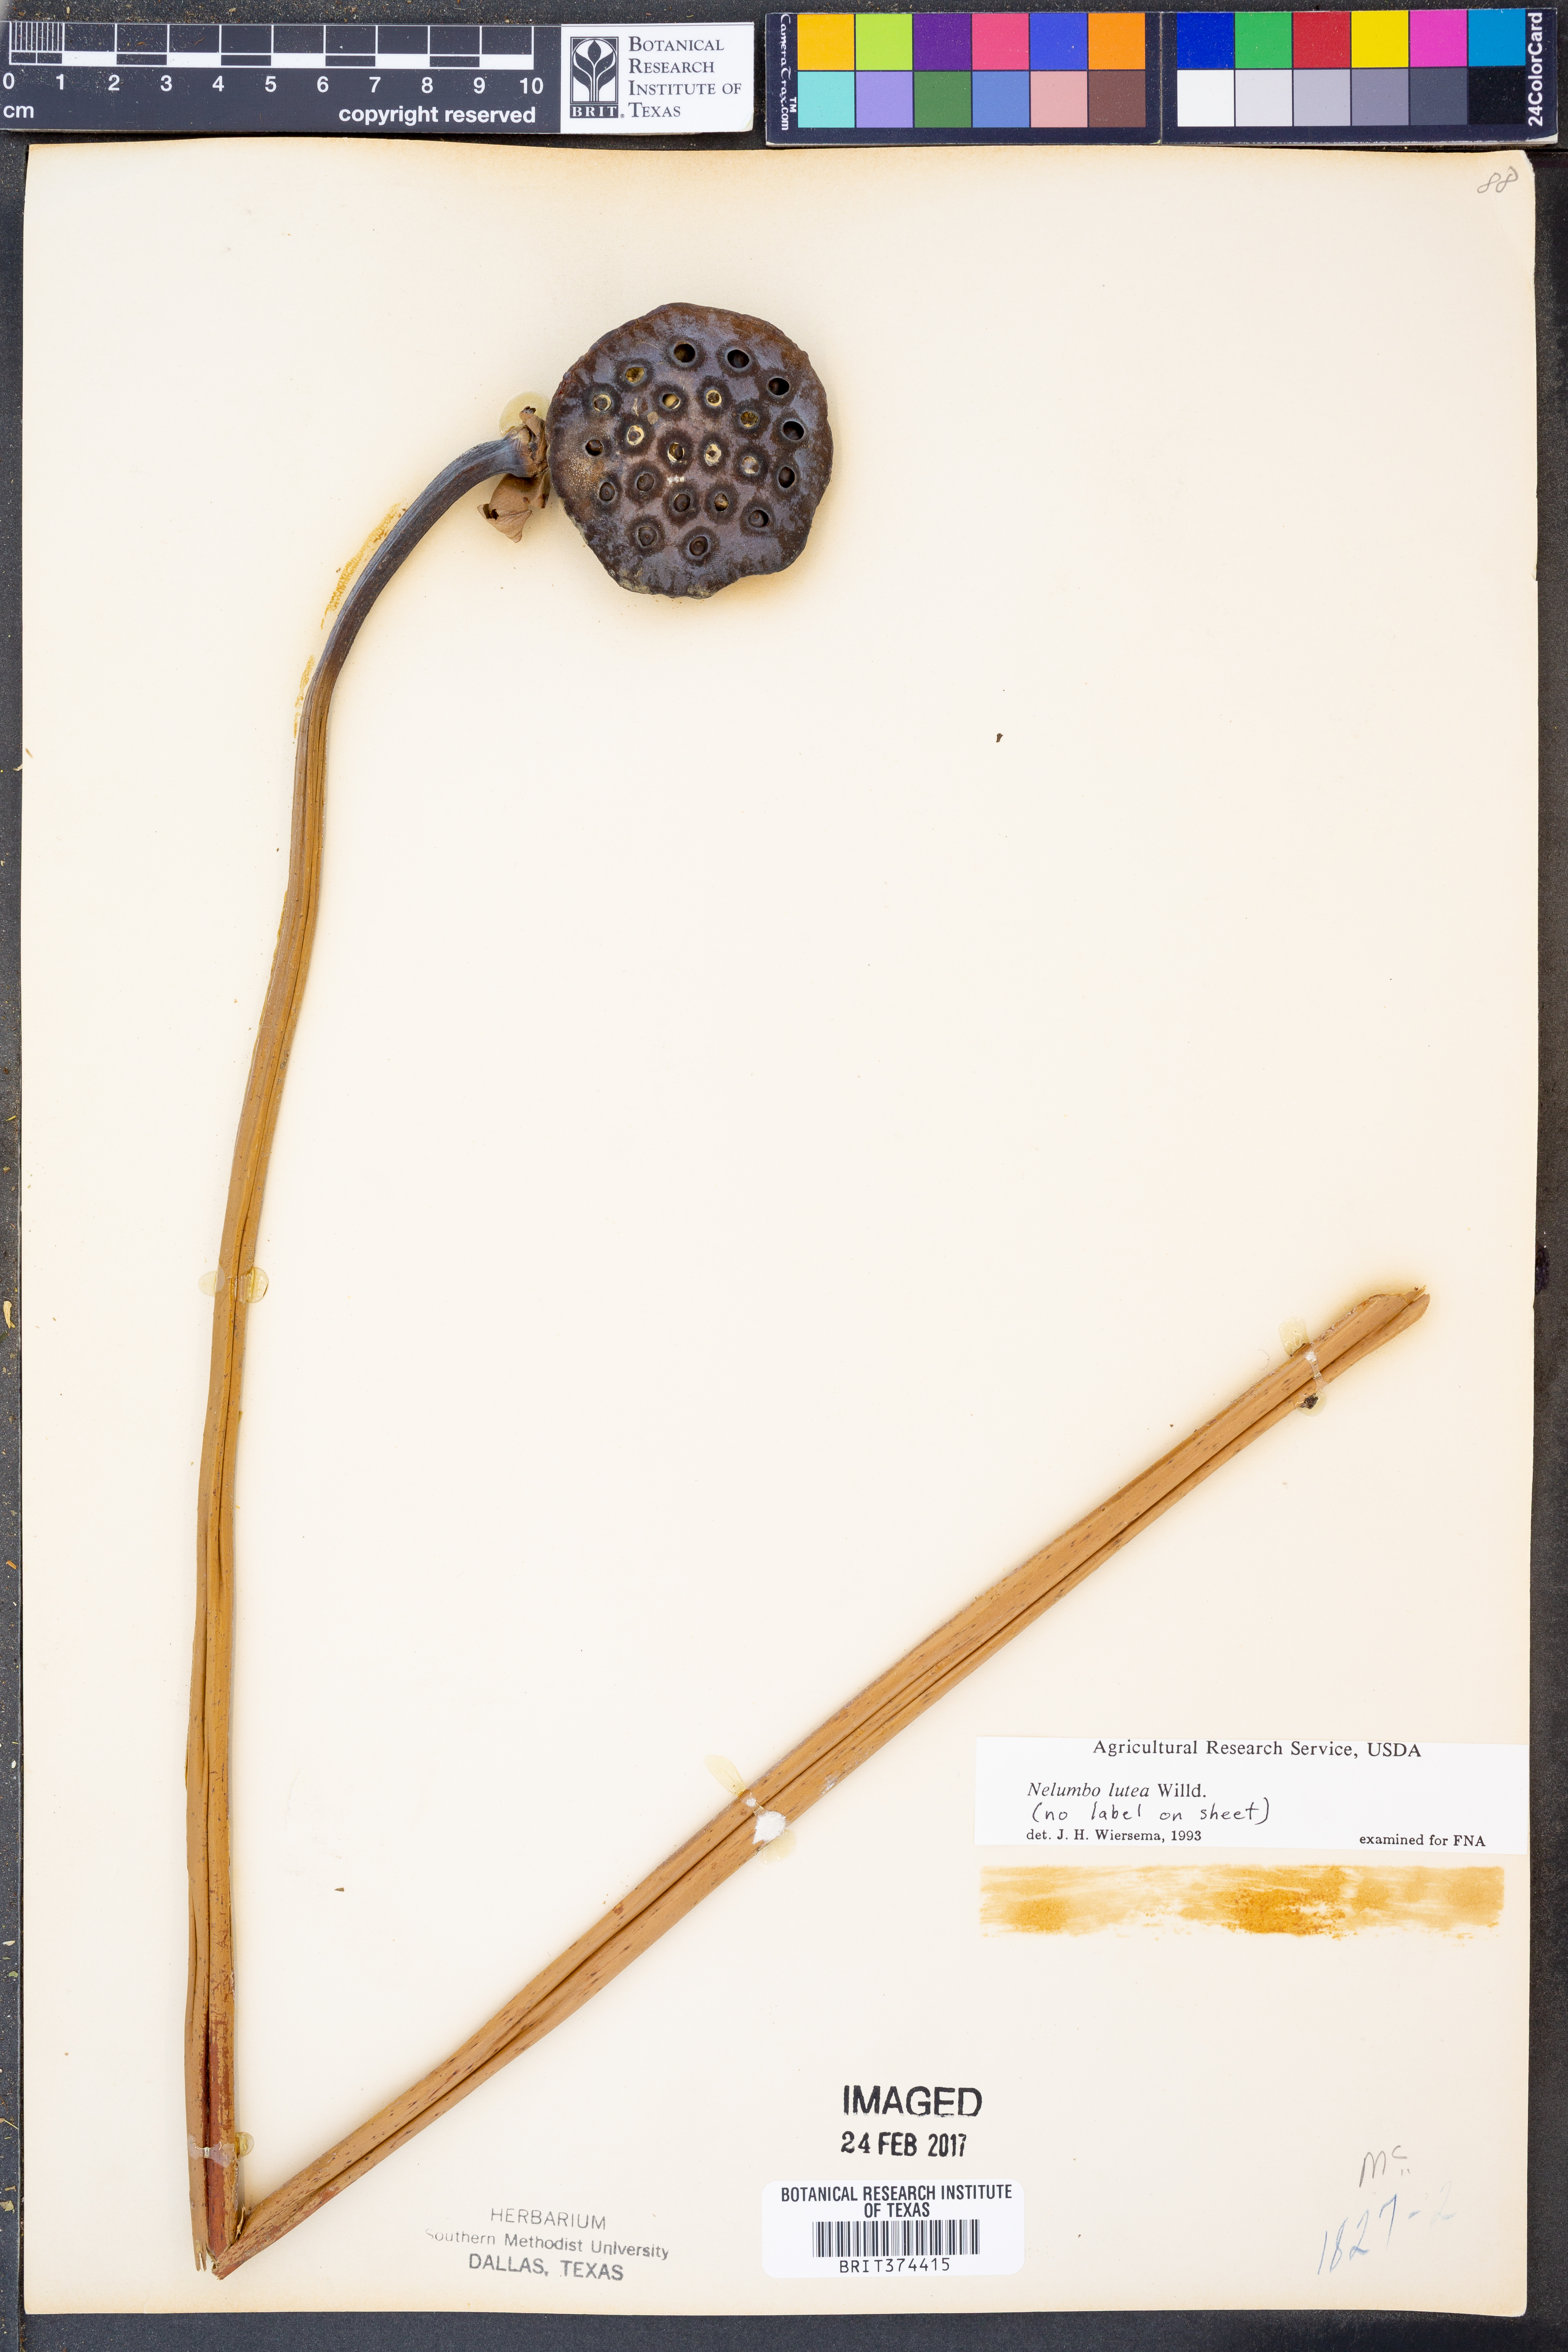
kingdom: Plantae
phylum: Tracheophyta
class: Magnoliopsida
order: Proteales
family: Nelumbonaceae
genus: Nelumbo
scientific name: Nelumbo lutea
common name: American lotus
